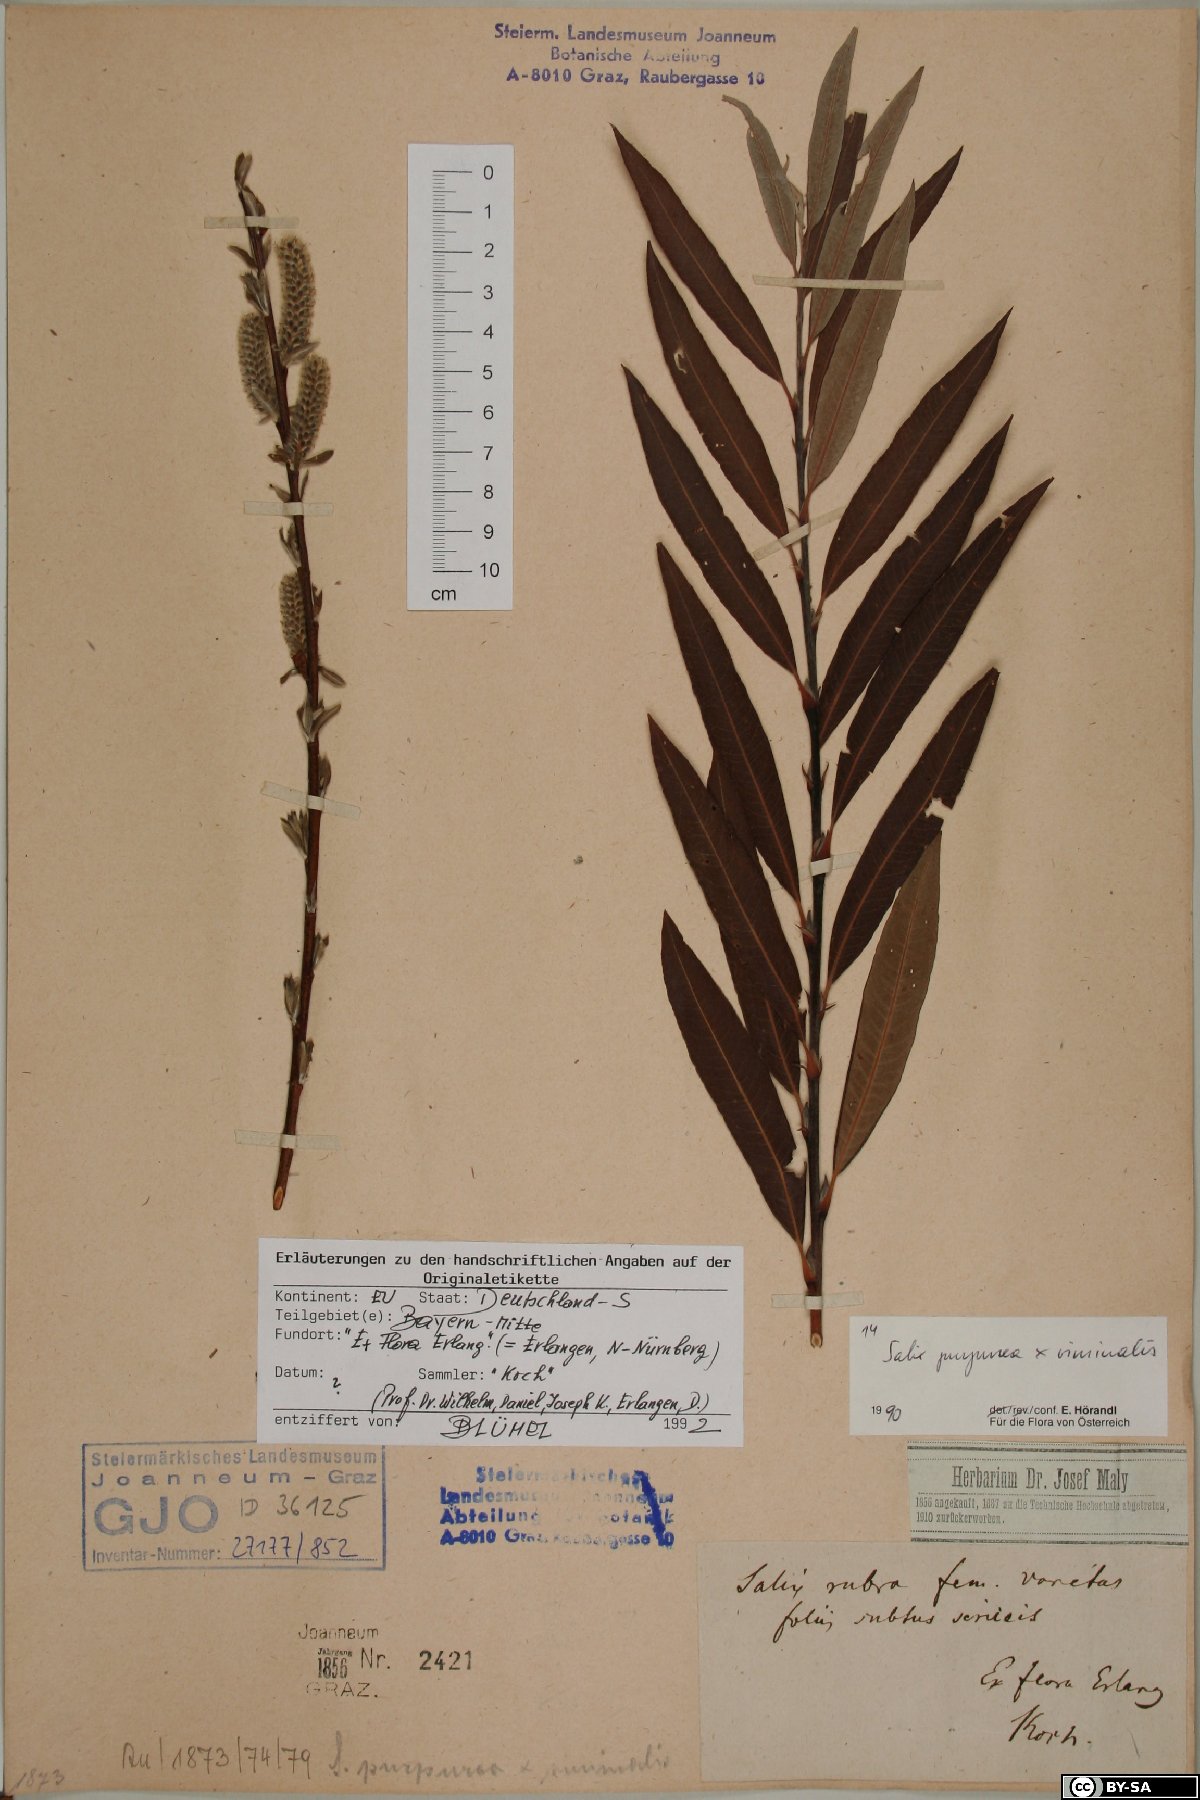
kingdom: Plantae
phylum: Tracheophyta
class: Magnoliopsida
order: Malpighiales
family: Salicaceae
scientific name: Salicaceae
